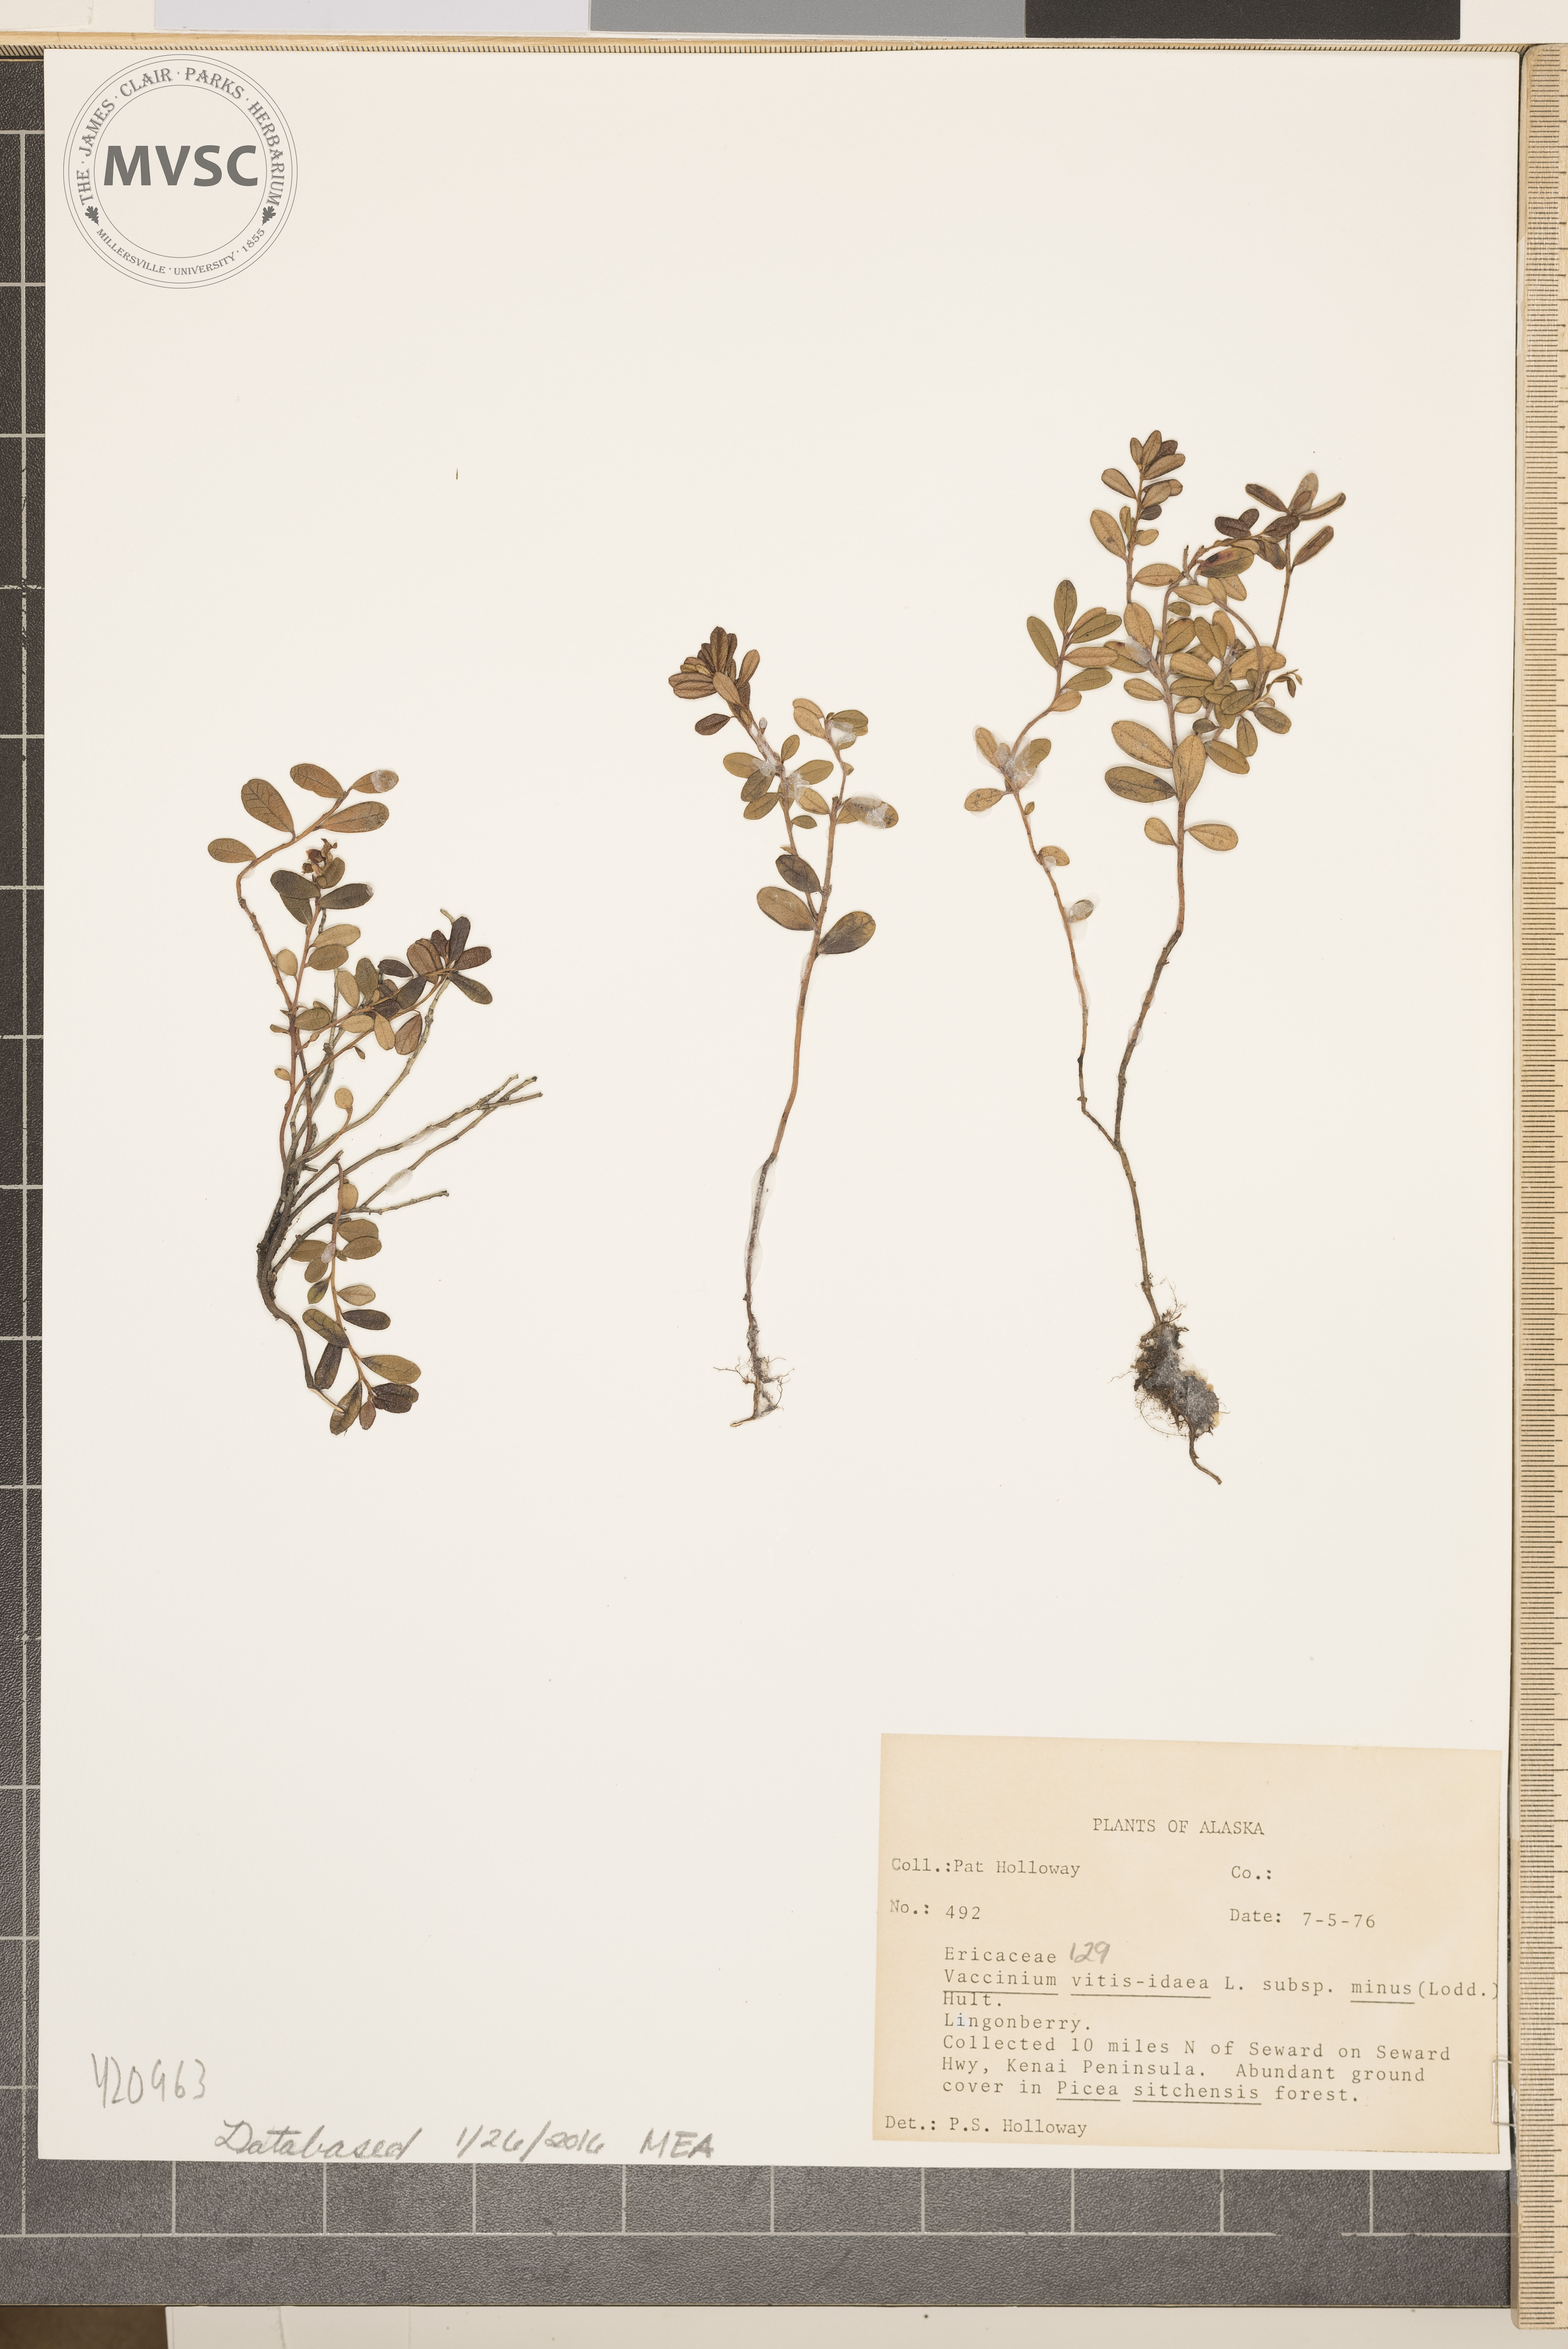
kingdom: Plantae
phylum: Tracheophyta
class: Magnoliopsida
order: Ericales
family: Ericaceae
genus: Vaccinium
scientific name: Vaccinium vitis-idaea
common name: Lingonberry
